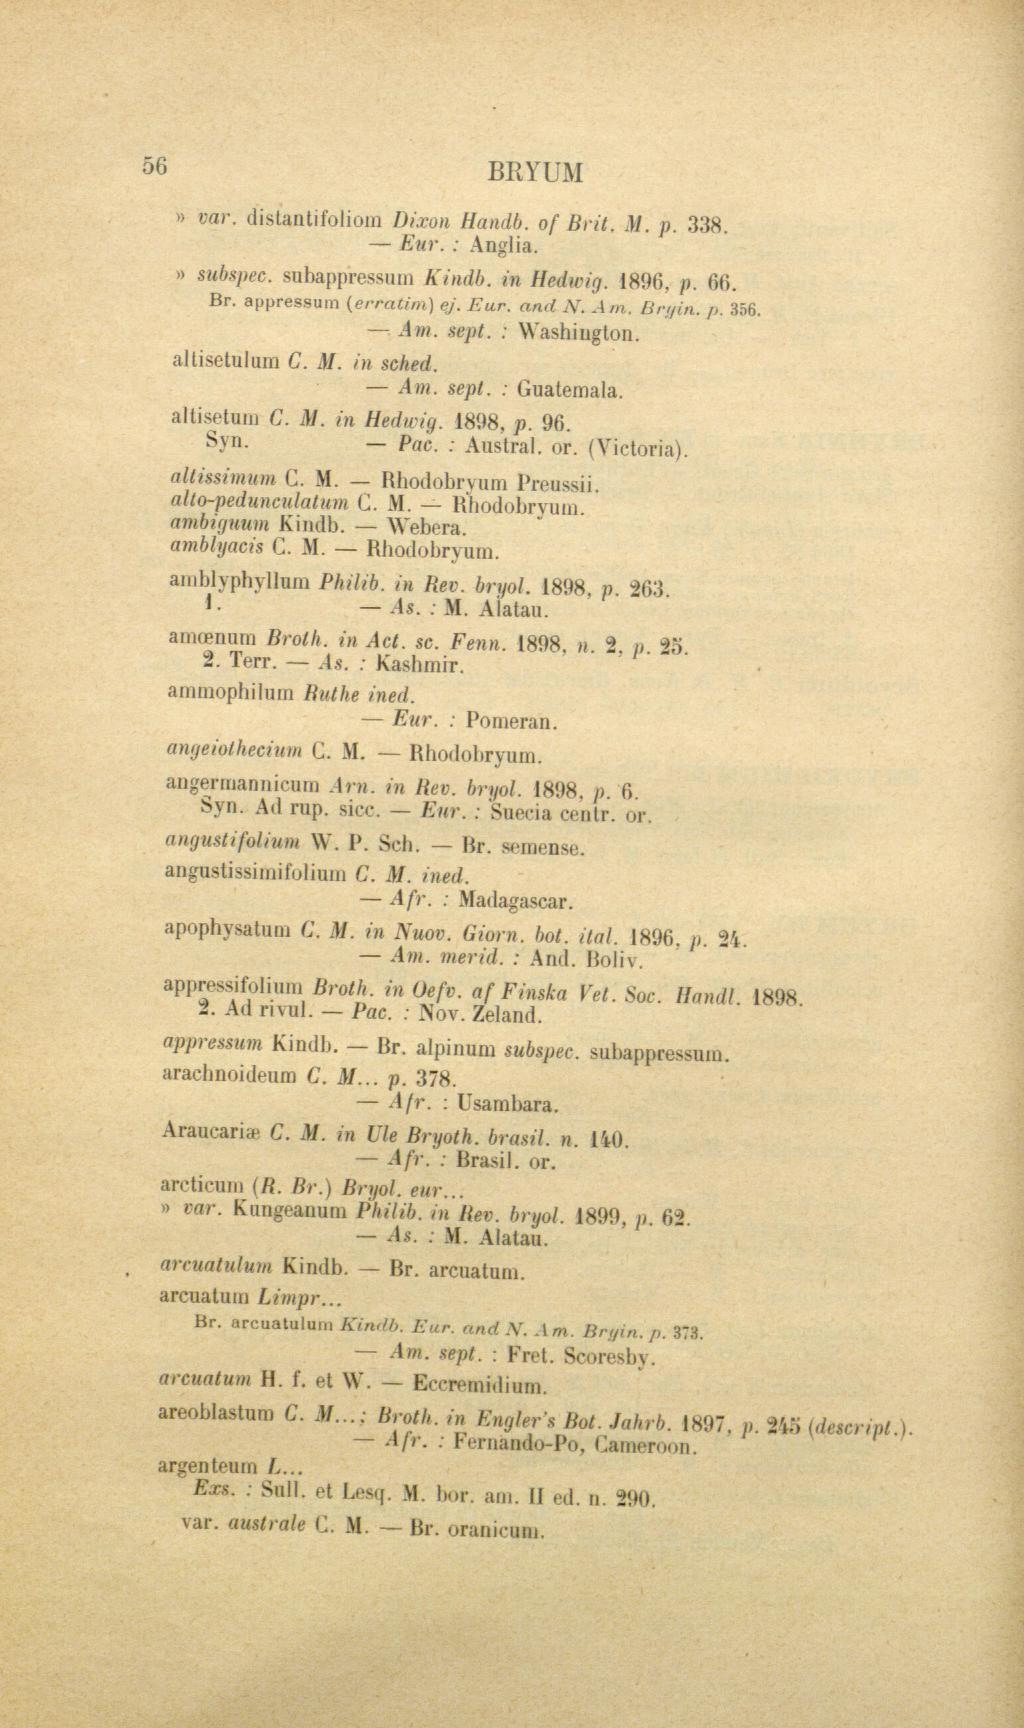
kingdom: Plantae
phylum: Bryophyta
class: Bryopsida
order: Bryales
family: Bryaceae
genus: Bryum
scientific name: Bryum
